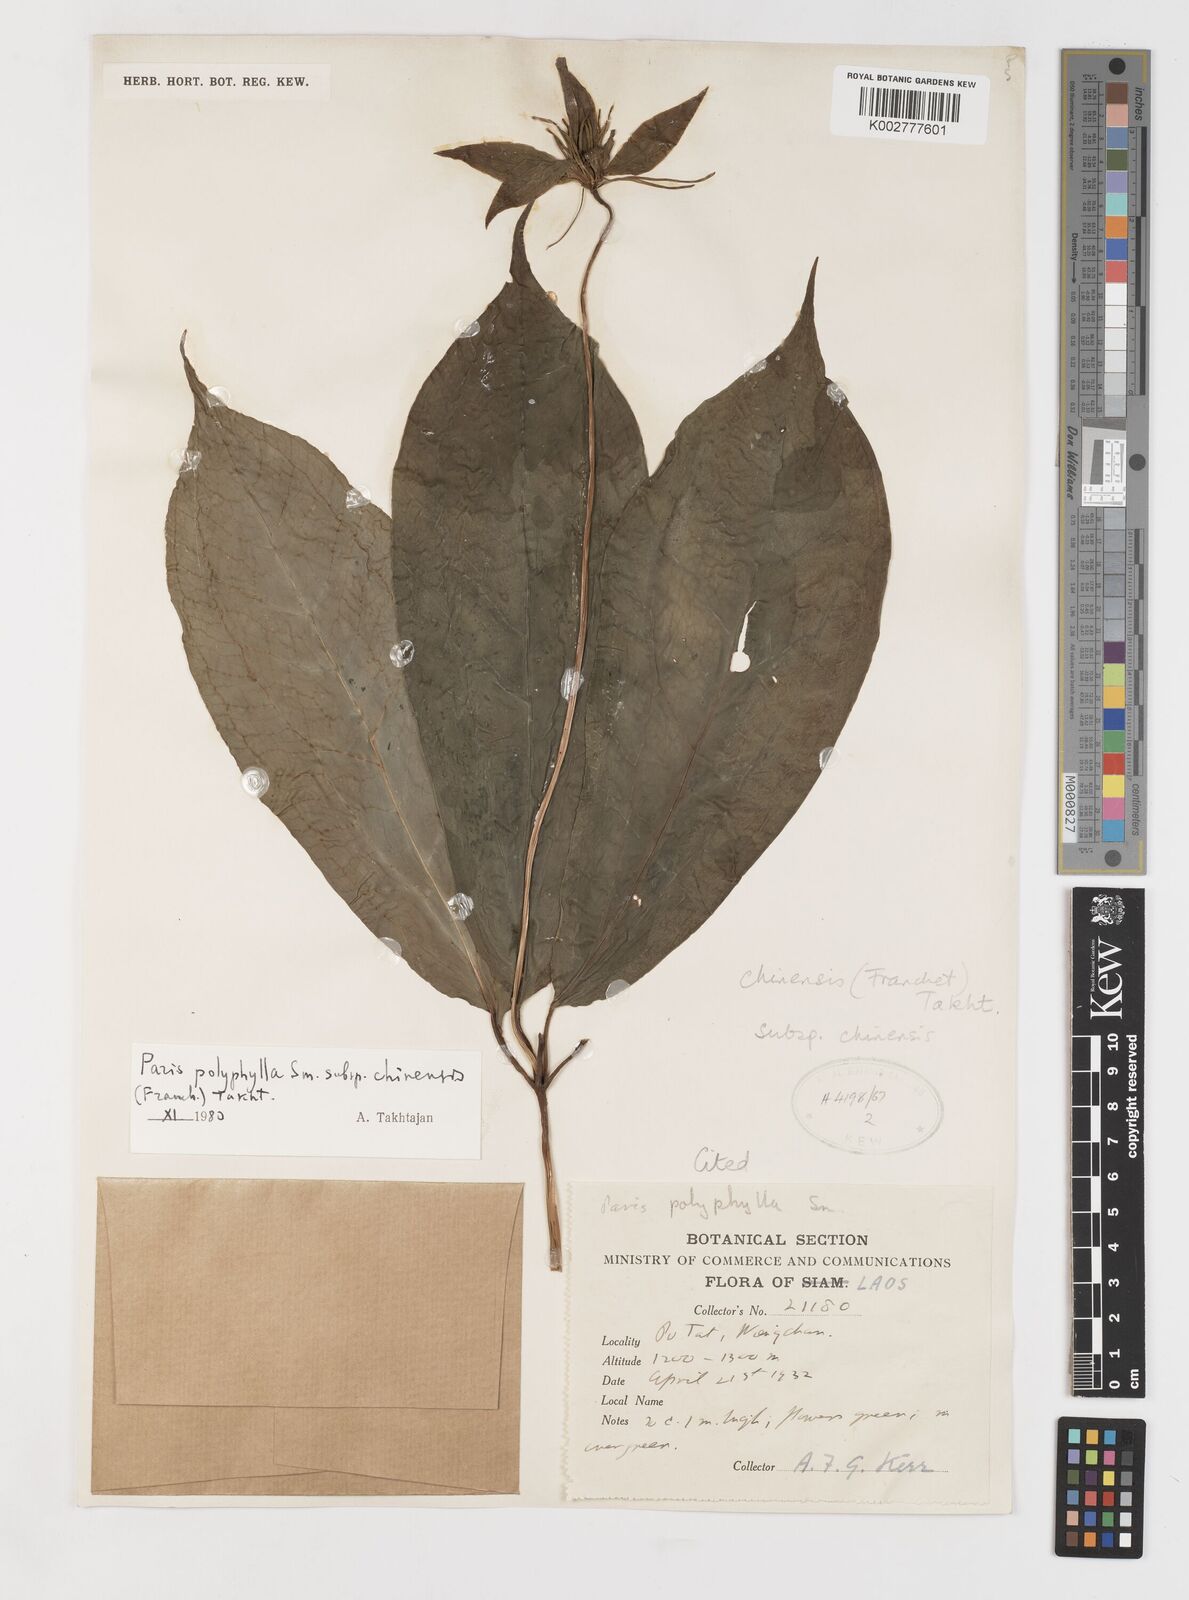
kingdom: Plantae
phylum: Tracheophyta
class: Liliopsida
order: Liliales
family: Melanthiaceae
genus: Paris
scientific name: Paris chinensis
